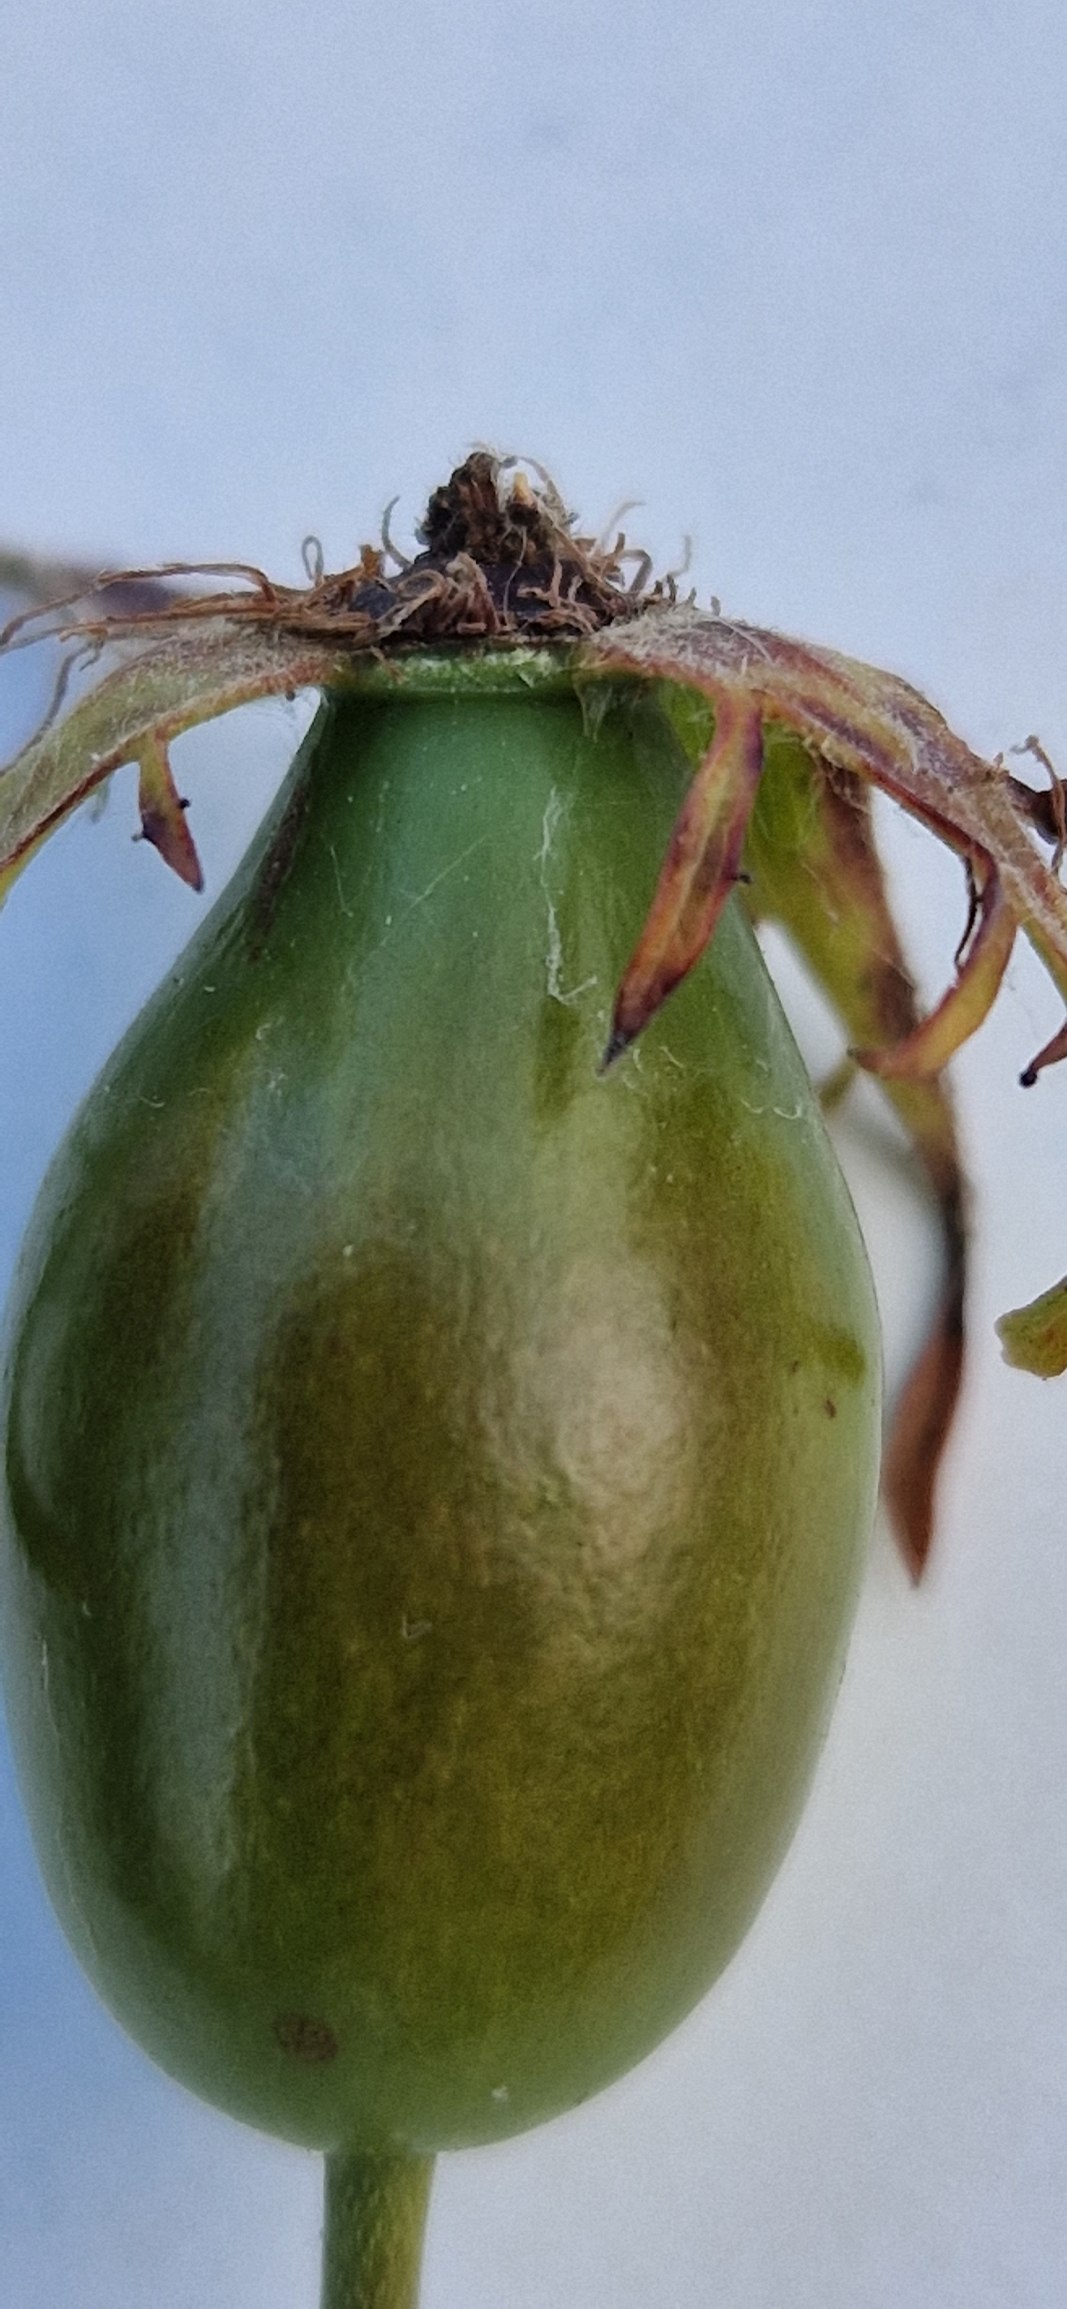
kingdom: Plantae
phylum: Tracheophyta
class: Magnoliopsida
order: Rosales
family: Rosaceae
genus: Rosa
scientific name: Rosa corymbifera
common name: Håret hunde-rose
